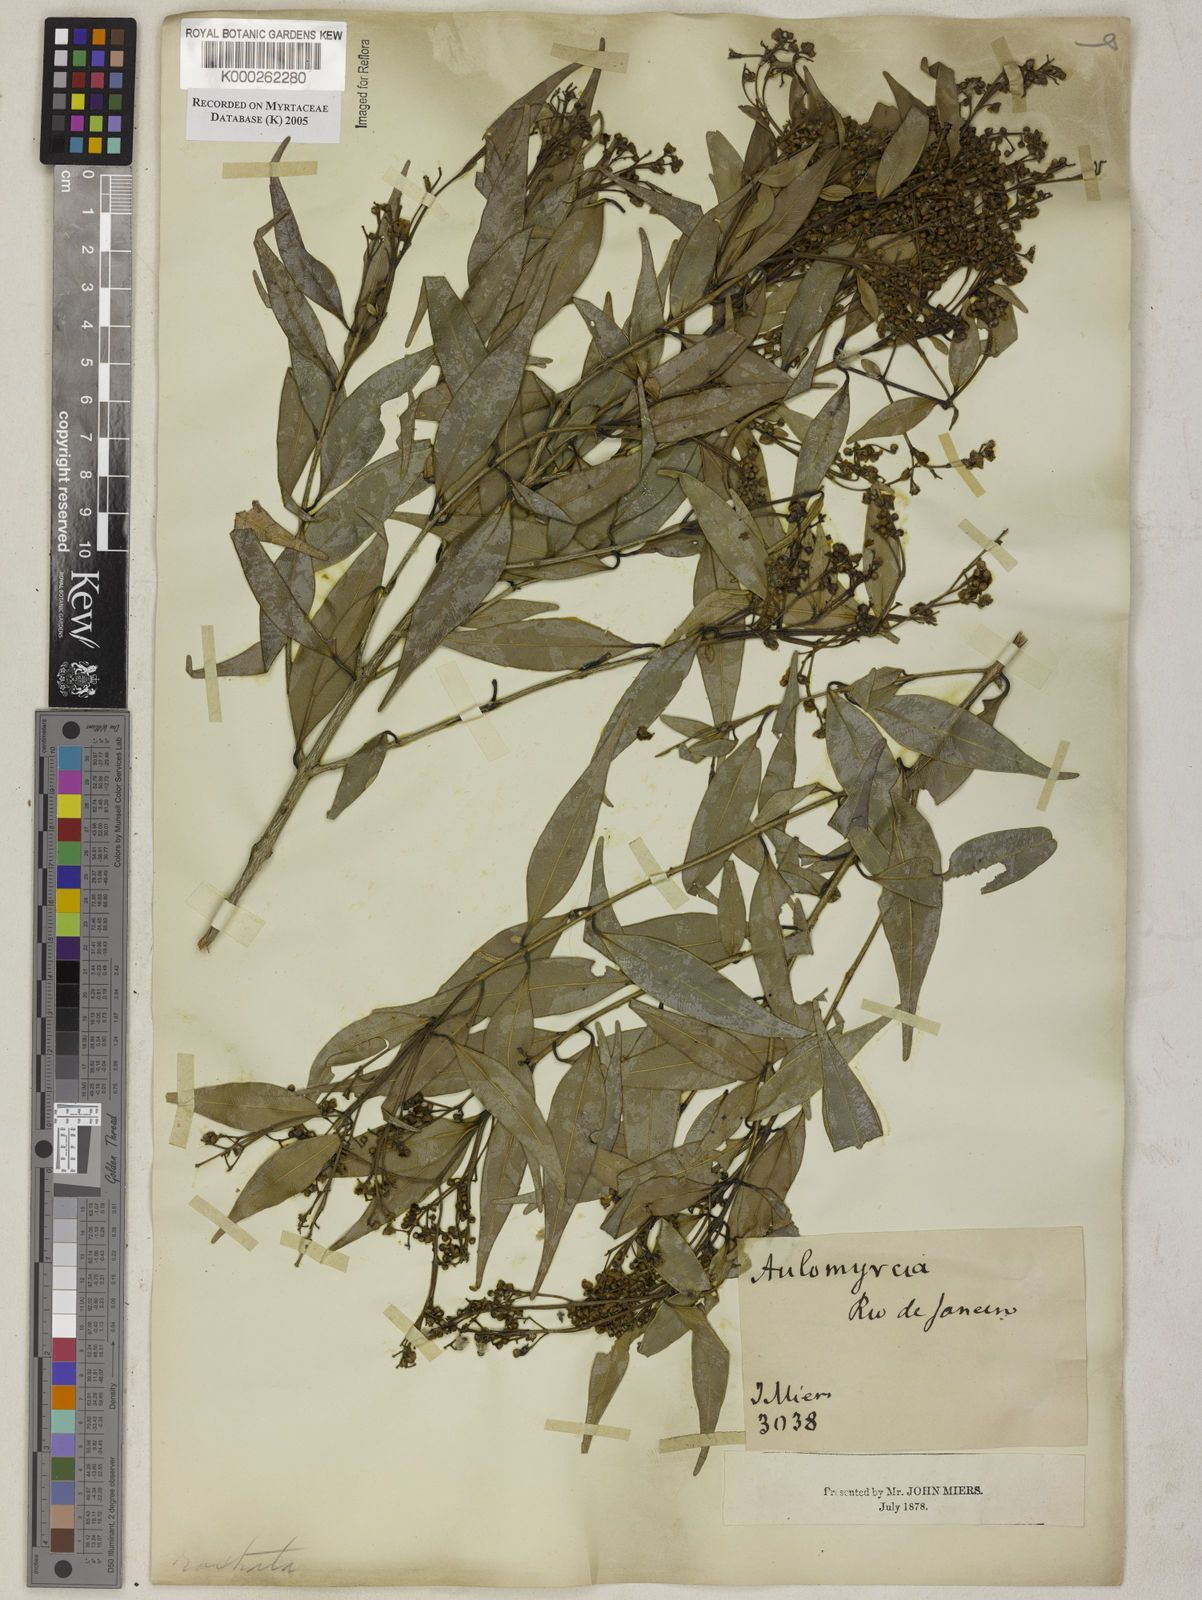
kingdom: Plantae
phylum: Tracheophyta
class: Magnoliopsida
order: Myrtales
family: Myrtaceae
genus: Myrcia
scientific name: Myrcia splendens
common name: Surinam cherry
